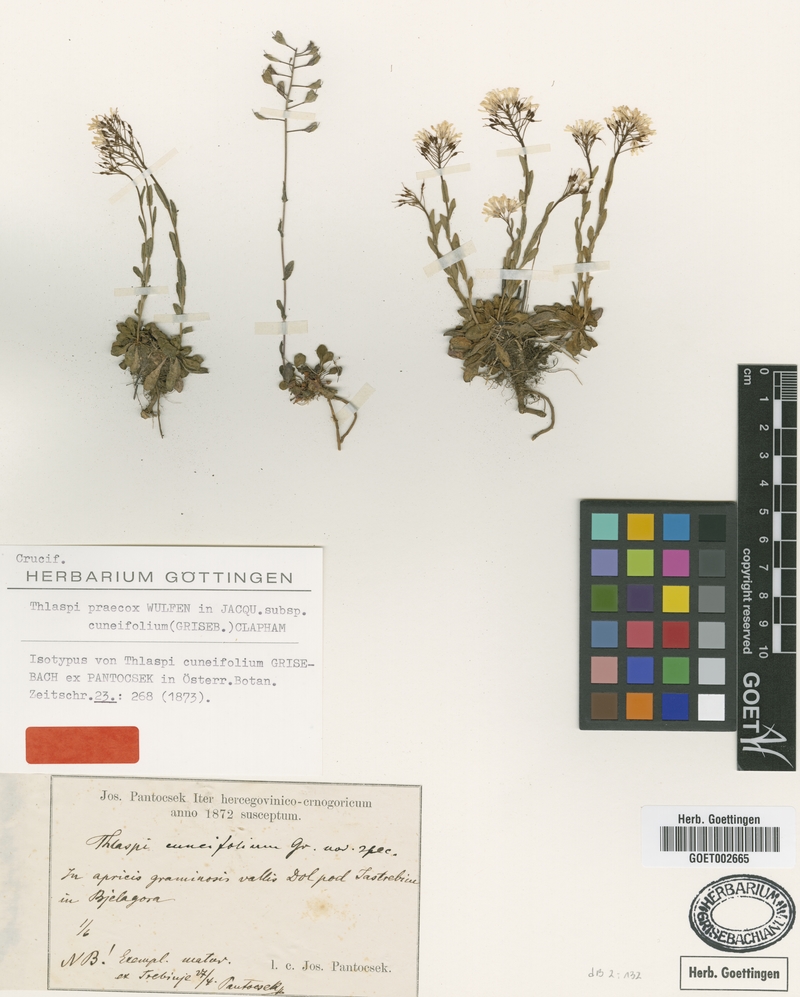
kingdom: Plantae
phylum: Tracheophyta
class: Magnoliopsida
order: Brassicales
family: Brassicaceae
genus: Noccaea
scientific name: Noccaea praecox
